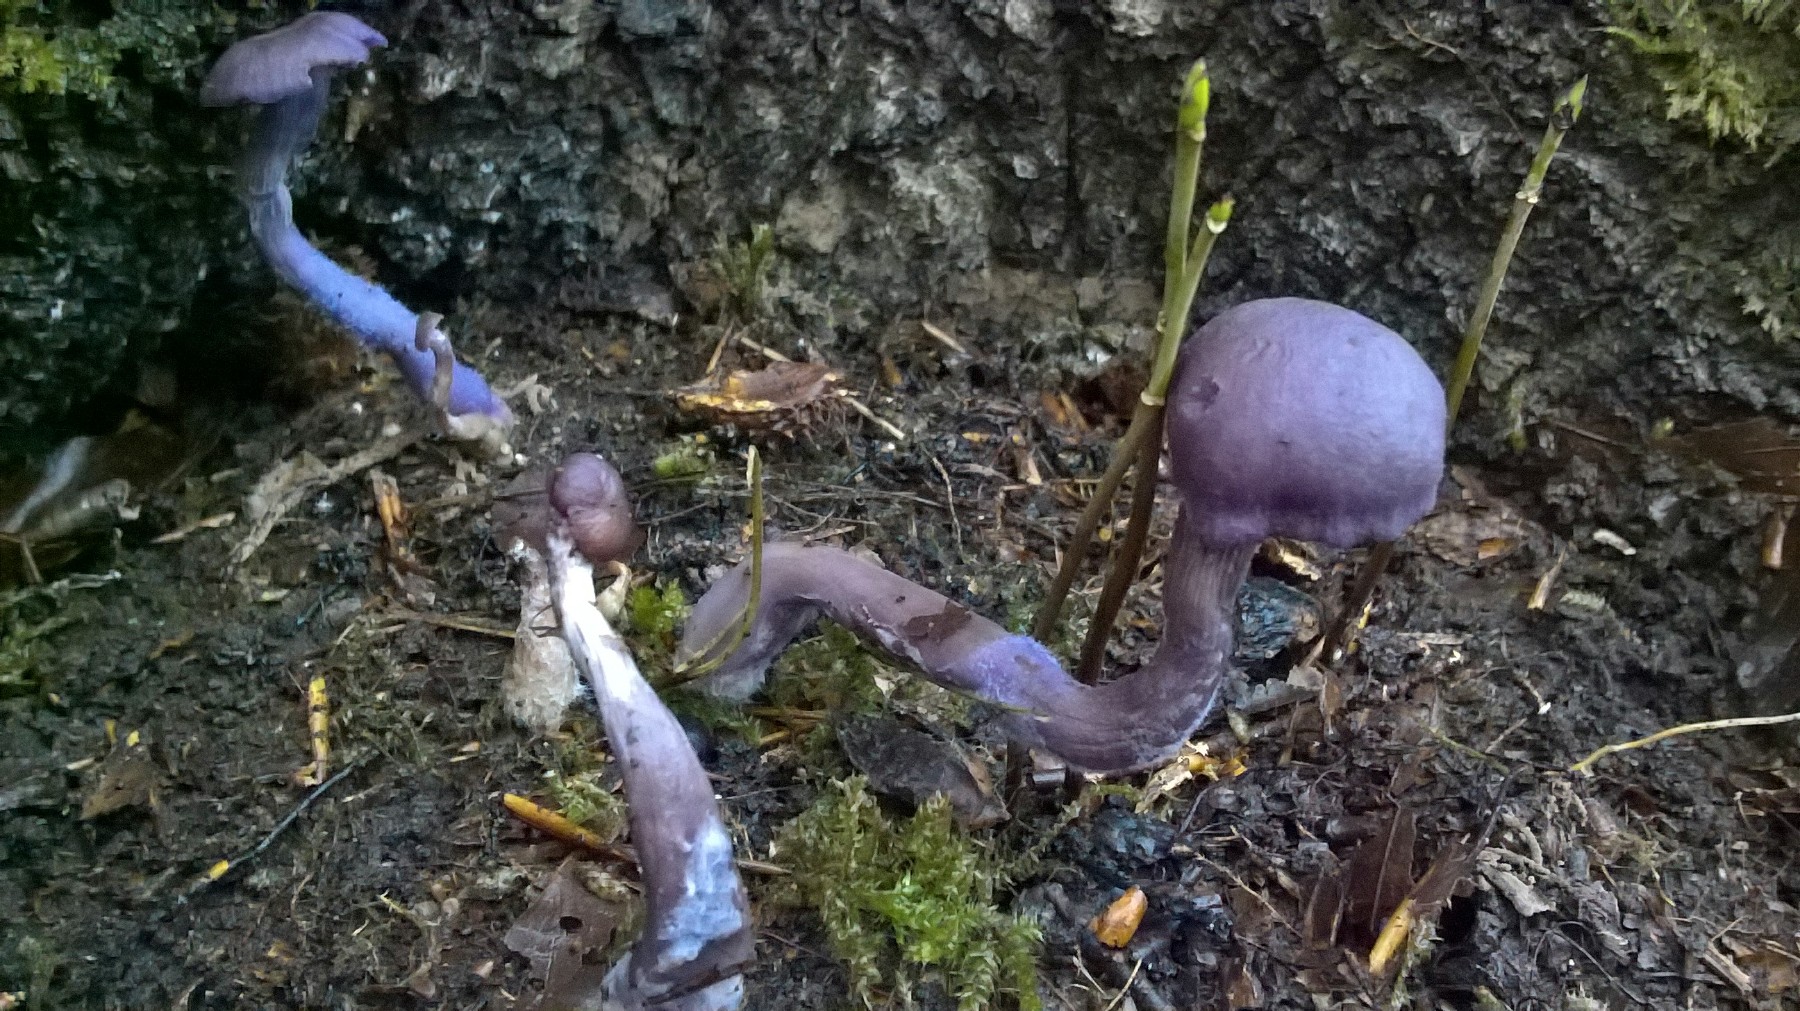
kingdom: Fungi
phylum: Basidiomycota
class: Agaricomycetes
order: Agaricales
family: Hydnangiaceae
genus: Laccaria
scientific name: Laccaria amethystina
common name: violet ametysthat
